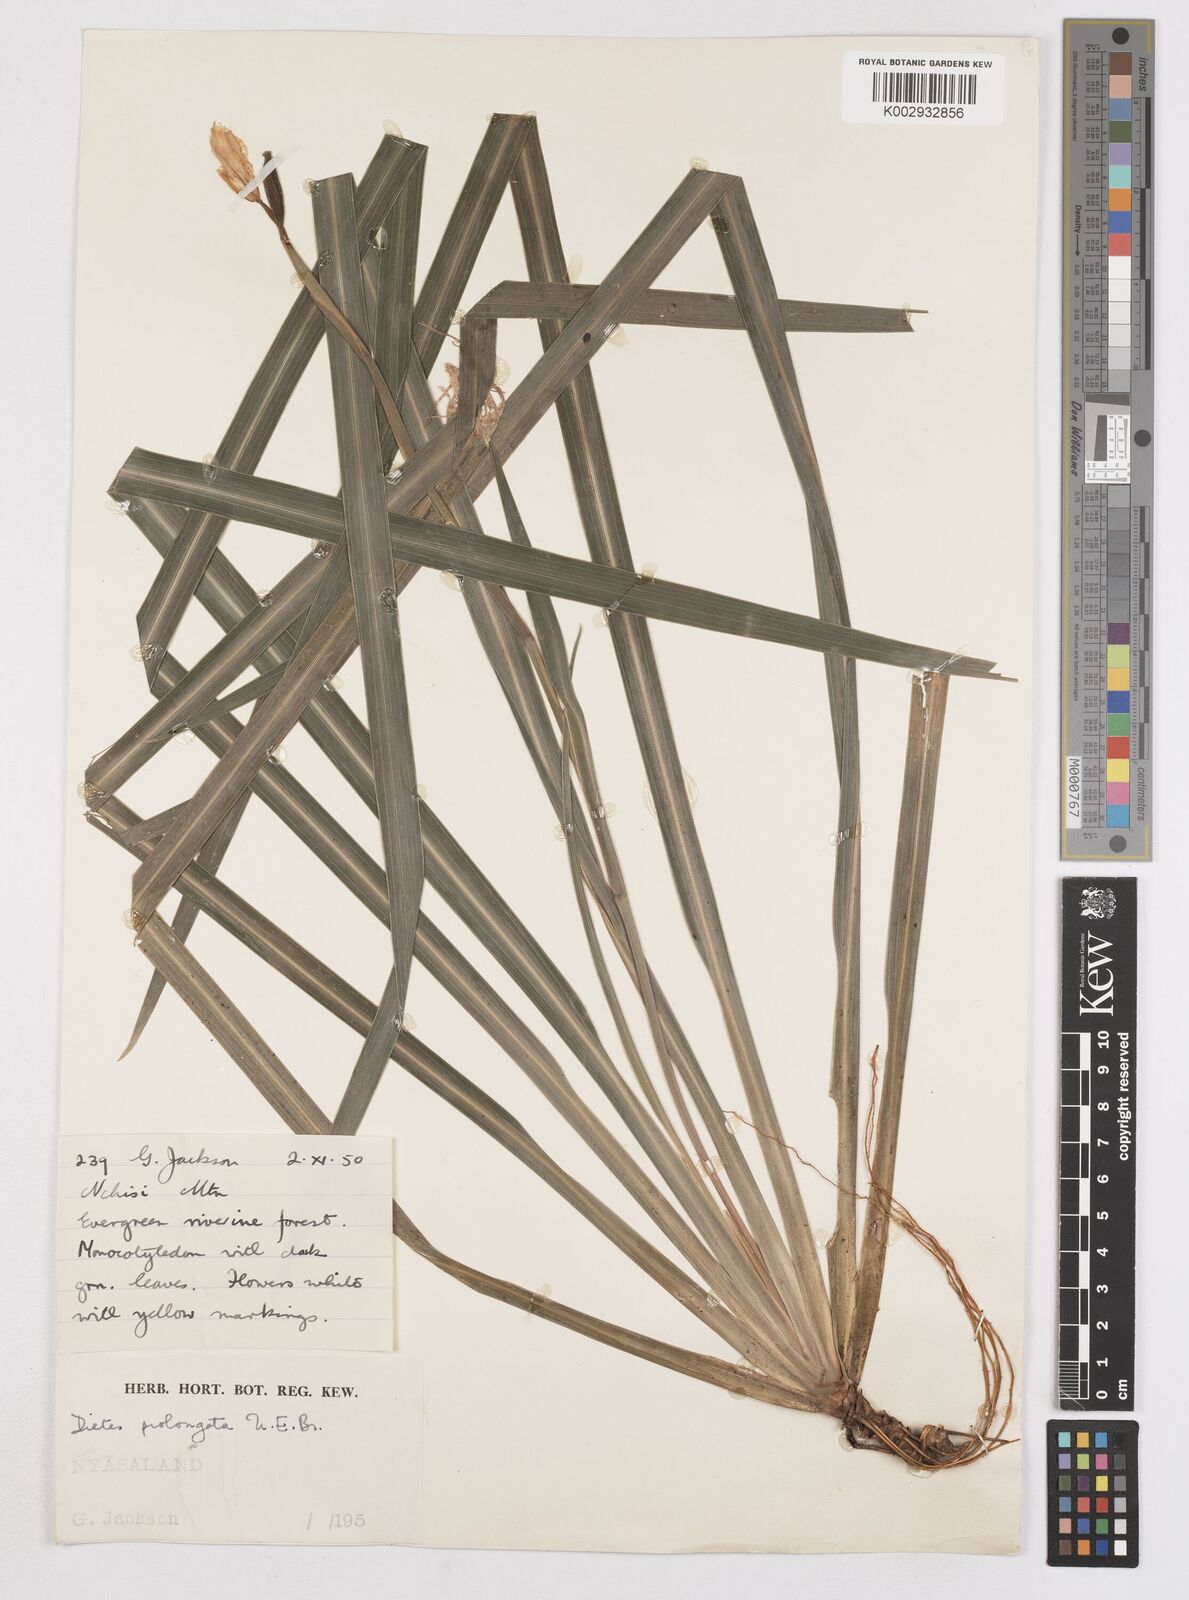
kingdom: Plantae
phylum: Tracheophyta
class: Liliopsida
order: Asparagales
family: Iridaceae
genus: Dietes
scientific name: Dietes iridioides
